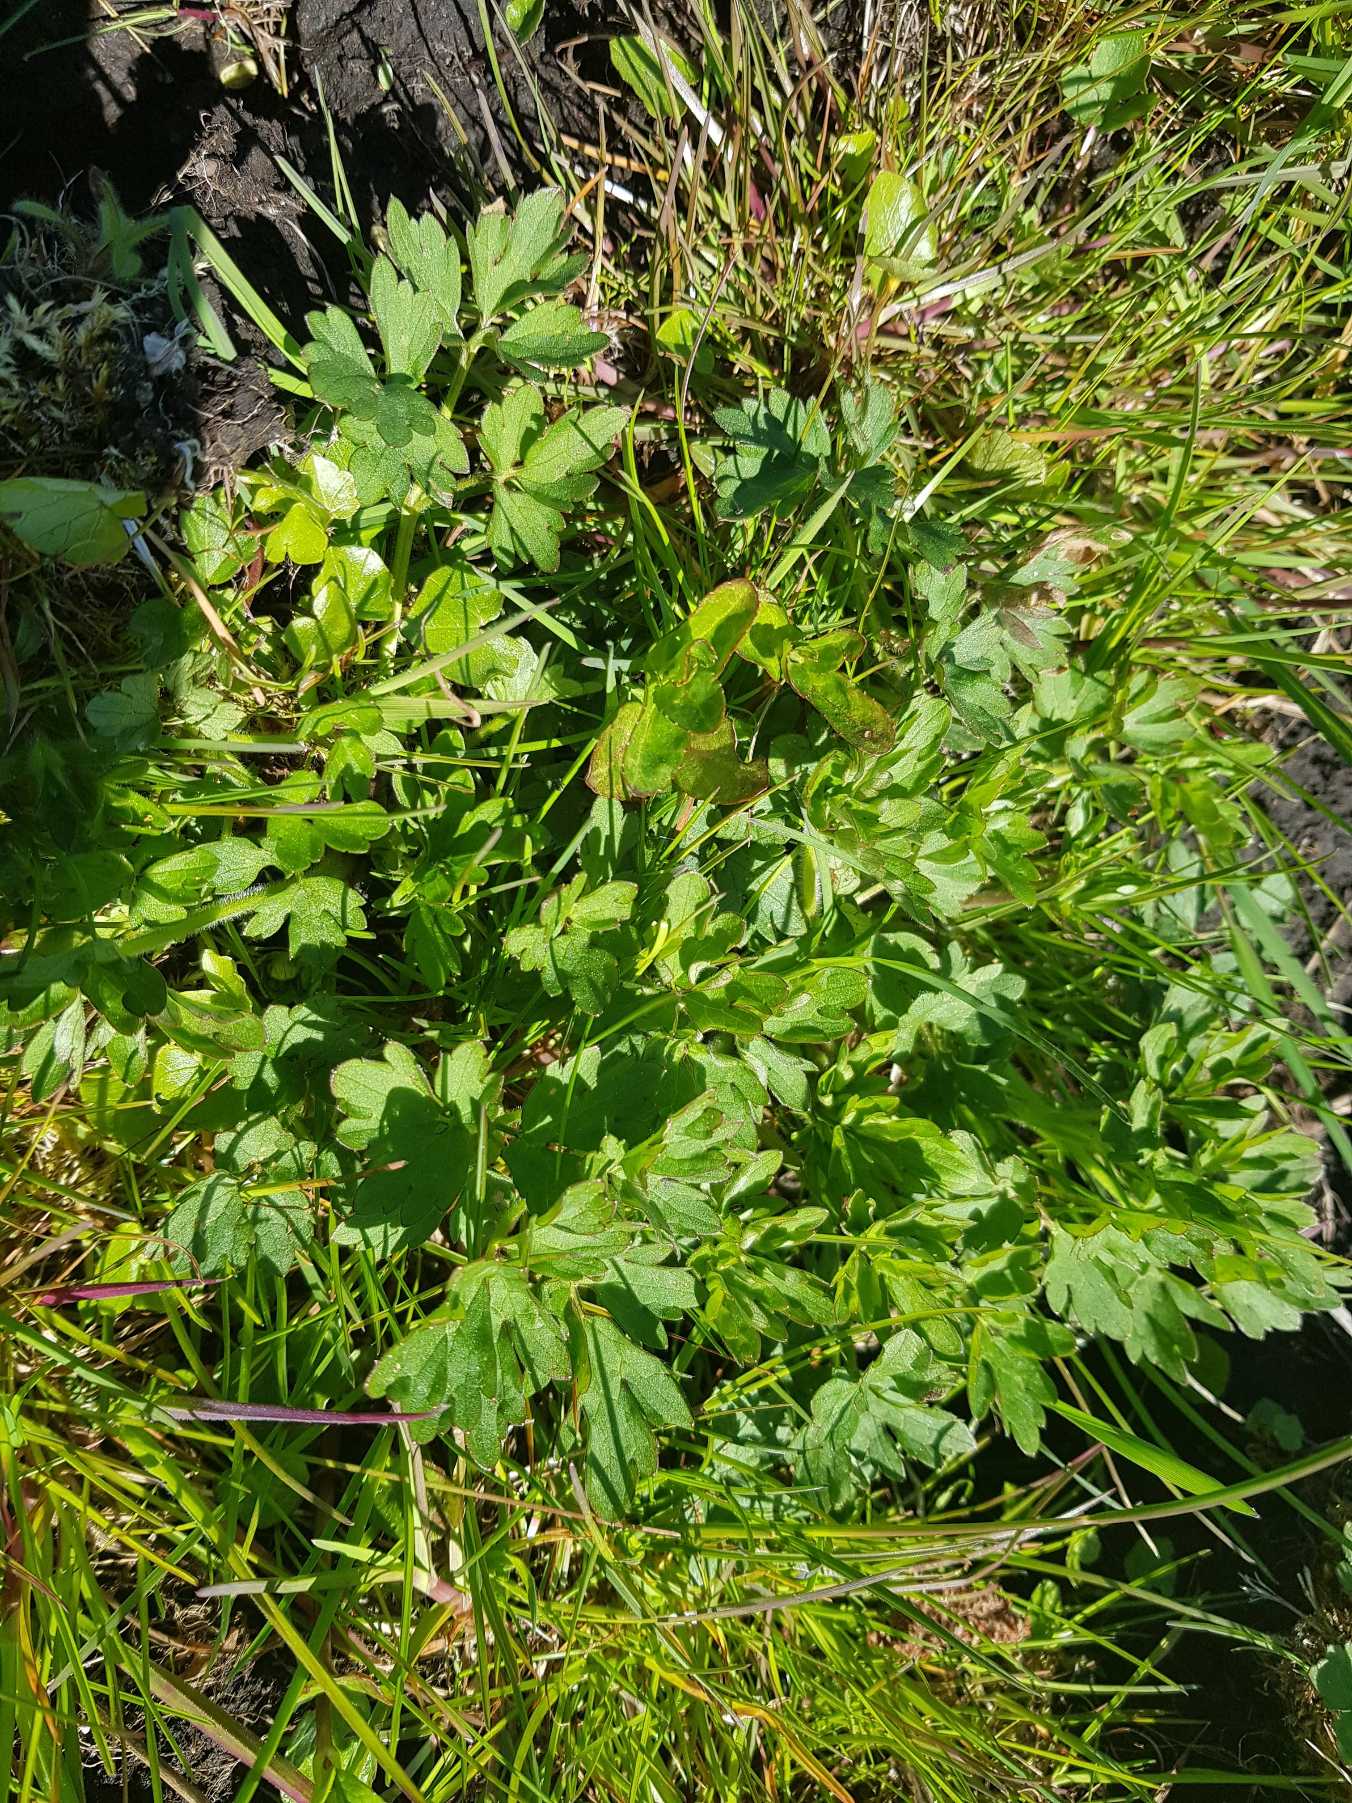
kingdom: Plantae
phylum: Tracheophyta
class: Magnoliopsida
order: Ranunculales
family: Ranunculaceae
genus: Ranunculus
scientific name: Ranunculus repens
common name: Lav ranunkel
